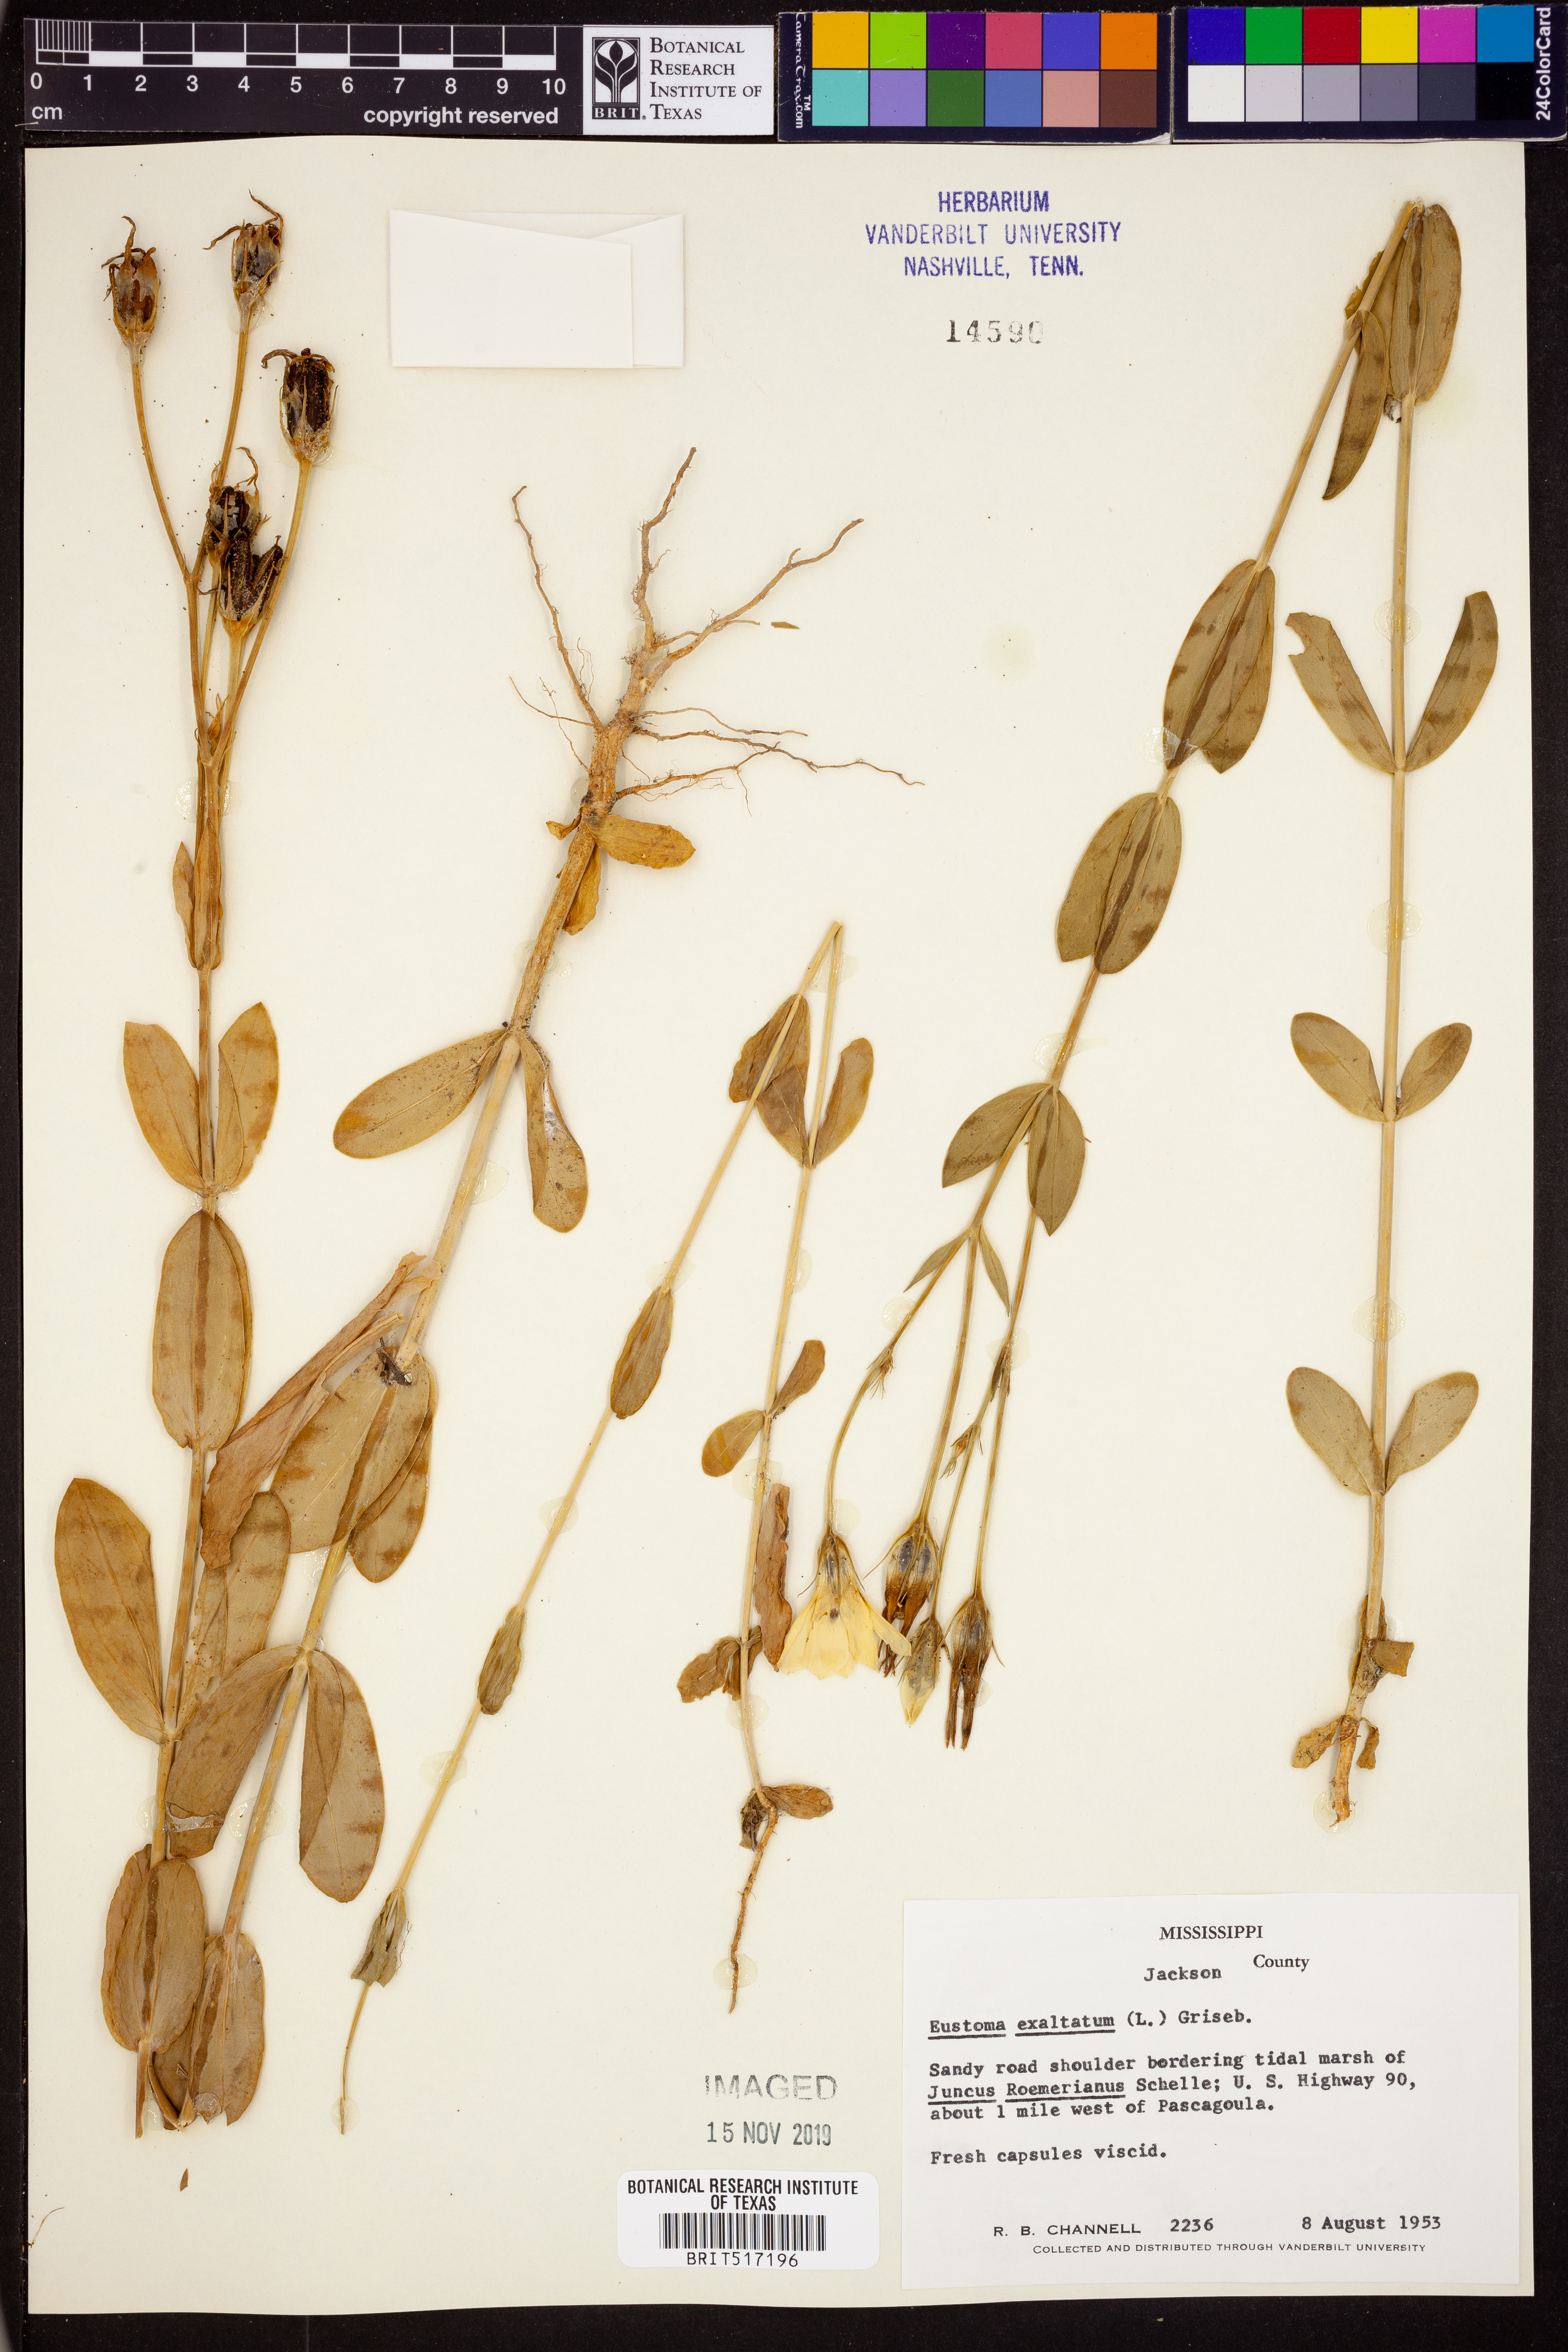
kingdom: Plantae
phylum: Tracheophyta
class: Magnoliopsida
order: Gentianales
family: Gentianaceae
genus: Eustoma
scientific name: Eustoma exaltatum
